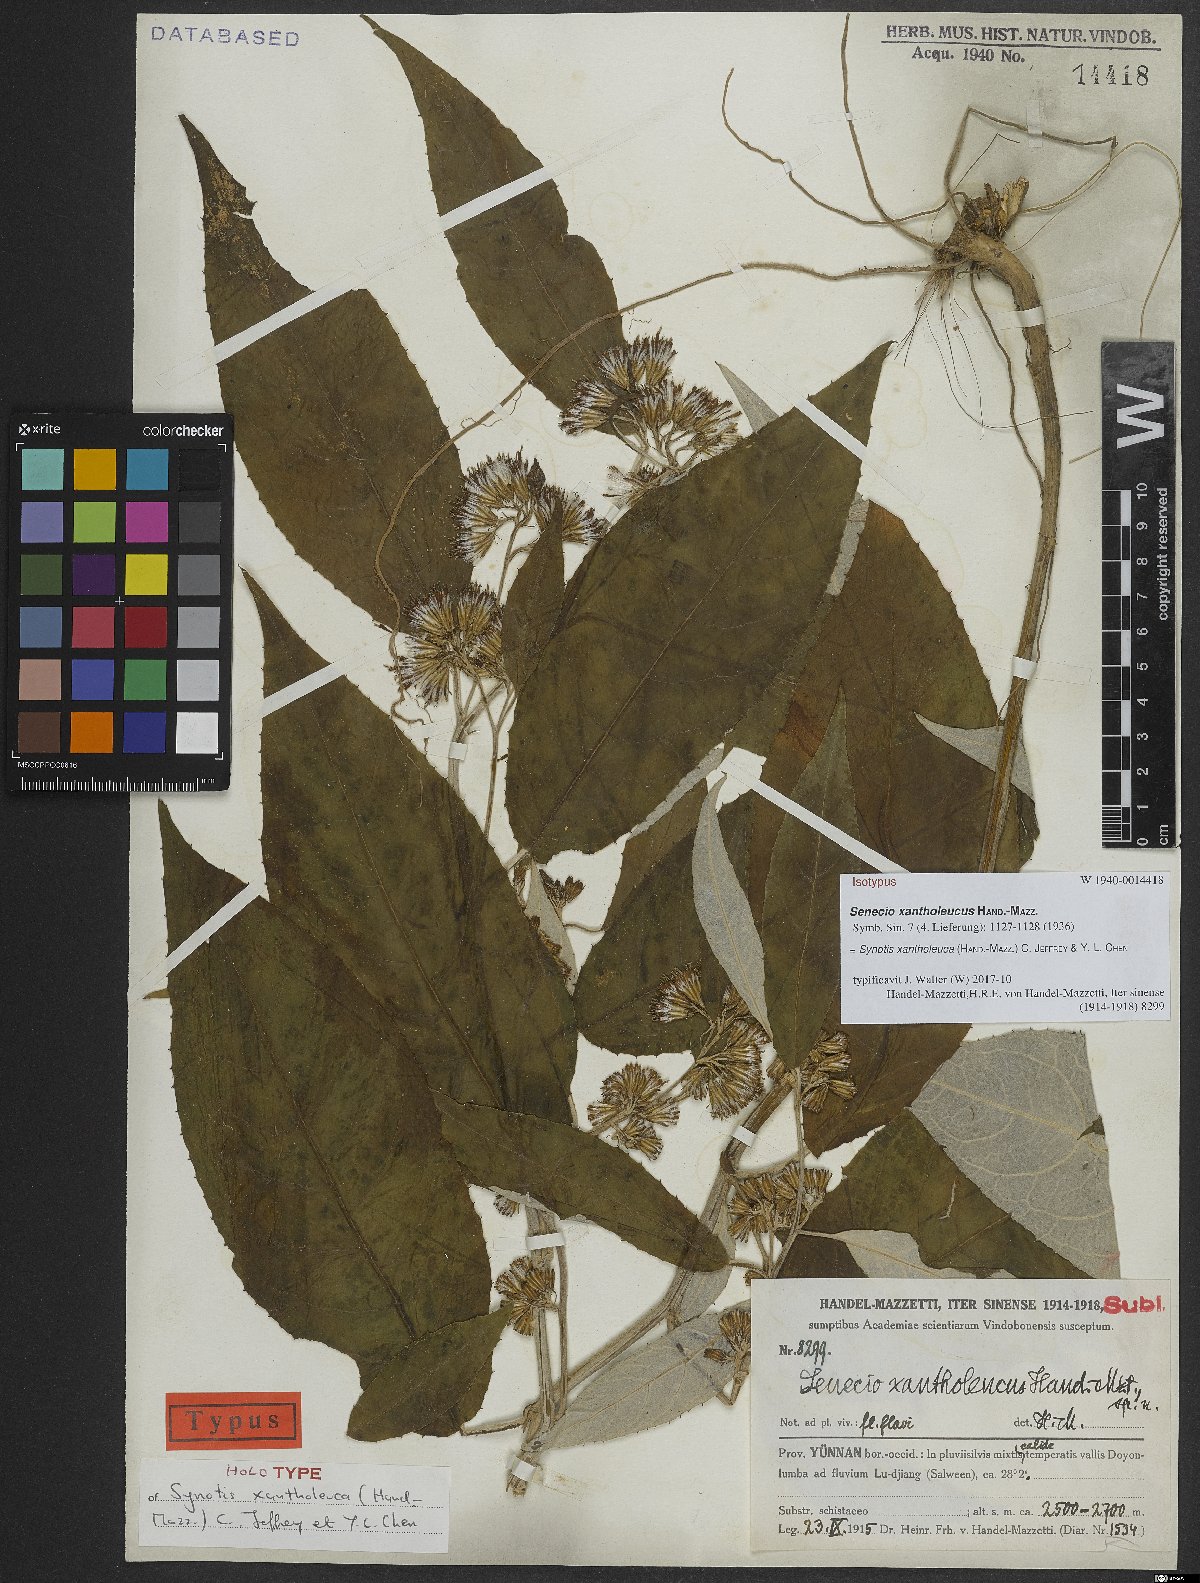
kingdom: Plantae
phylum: Tracheophyta
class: Magnoliopsida
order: Asterales
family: Asteraceae
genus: Synotis
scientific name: Synotis xantholeuca
